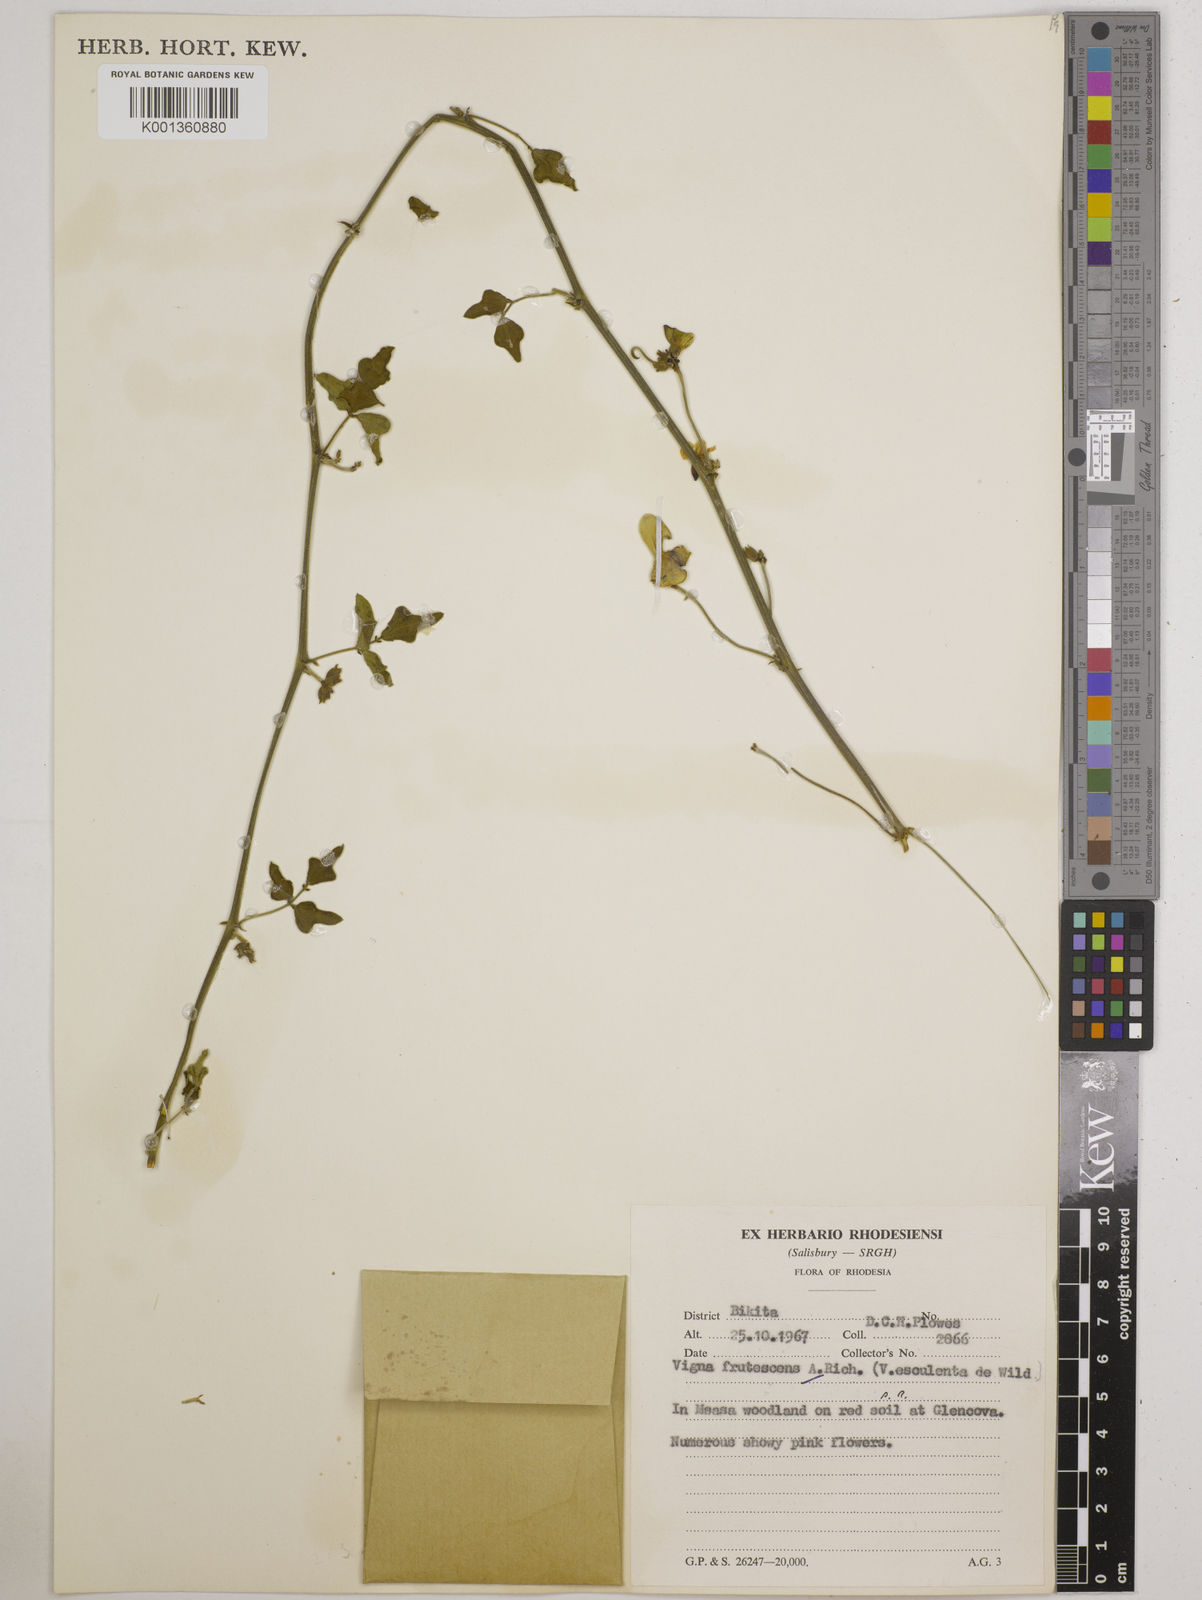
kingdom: Plantae
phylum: Tracheophyta
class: Magnoliopsida
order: Fabales
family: Fabaceae
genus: Vigna
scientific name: Vigna
